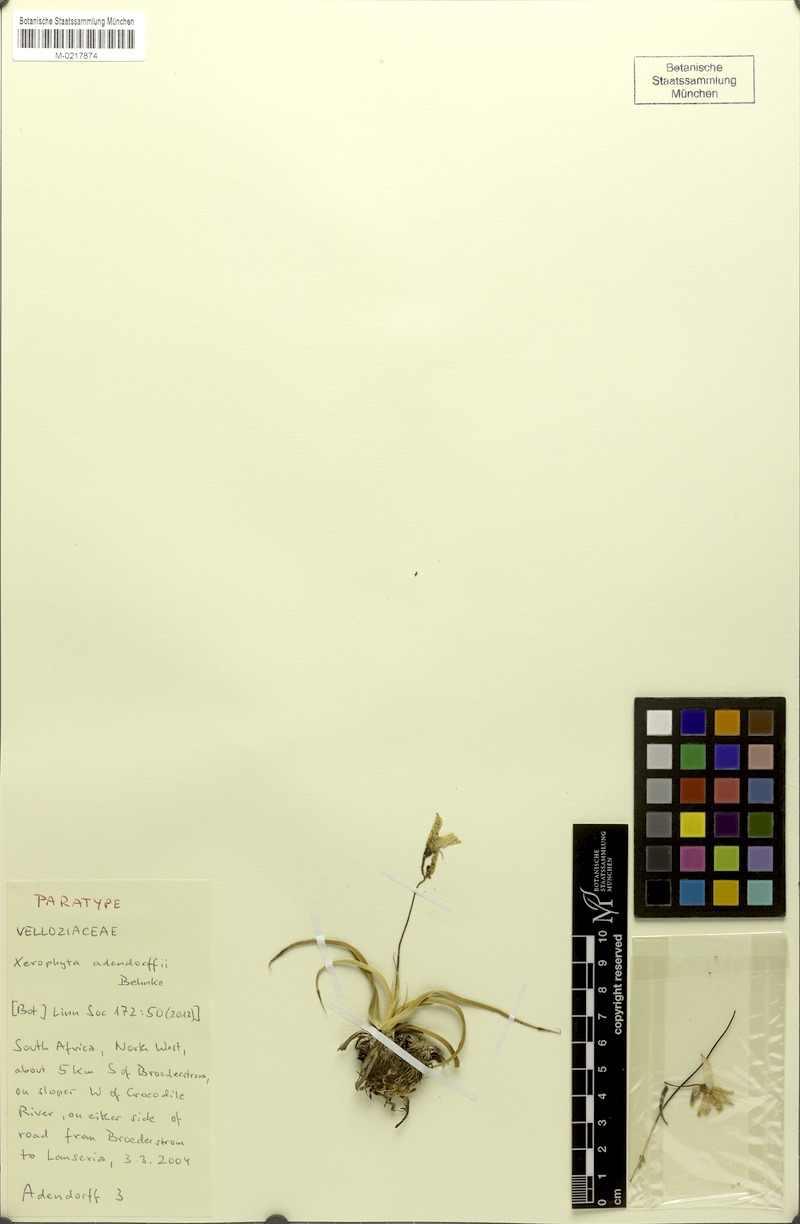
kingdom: Plantae
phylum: Tracheophyta
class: Liliopsida
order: Pandanales
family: Velloziaceae
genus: Xerophyta
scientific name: Xerophyta adendorffii
